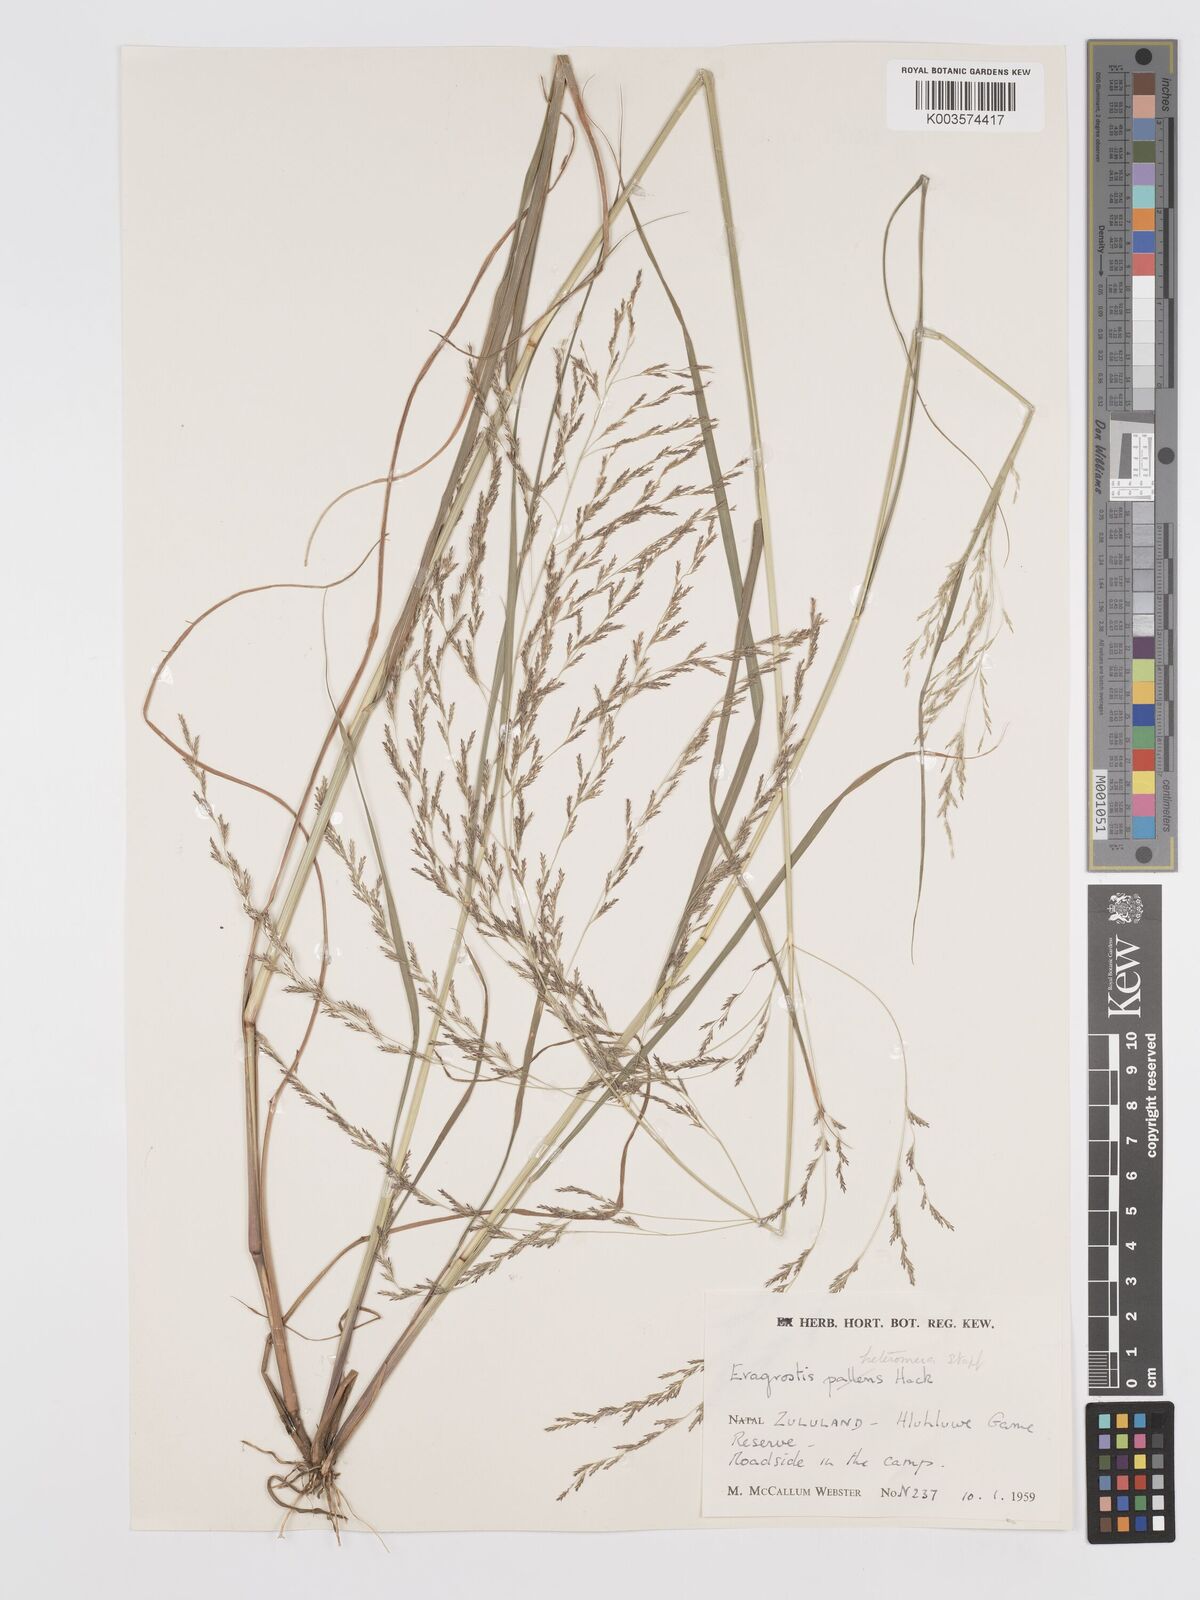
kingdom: Plantae
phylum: Tracheophyta
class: Liliopsida
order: Poales
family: Poaceae
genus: Eragrostis
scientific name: Eragrostis heteromera
